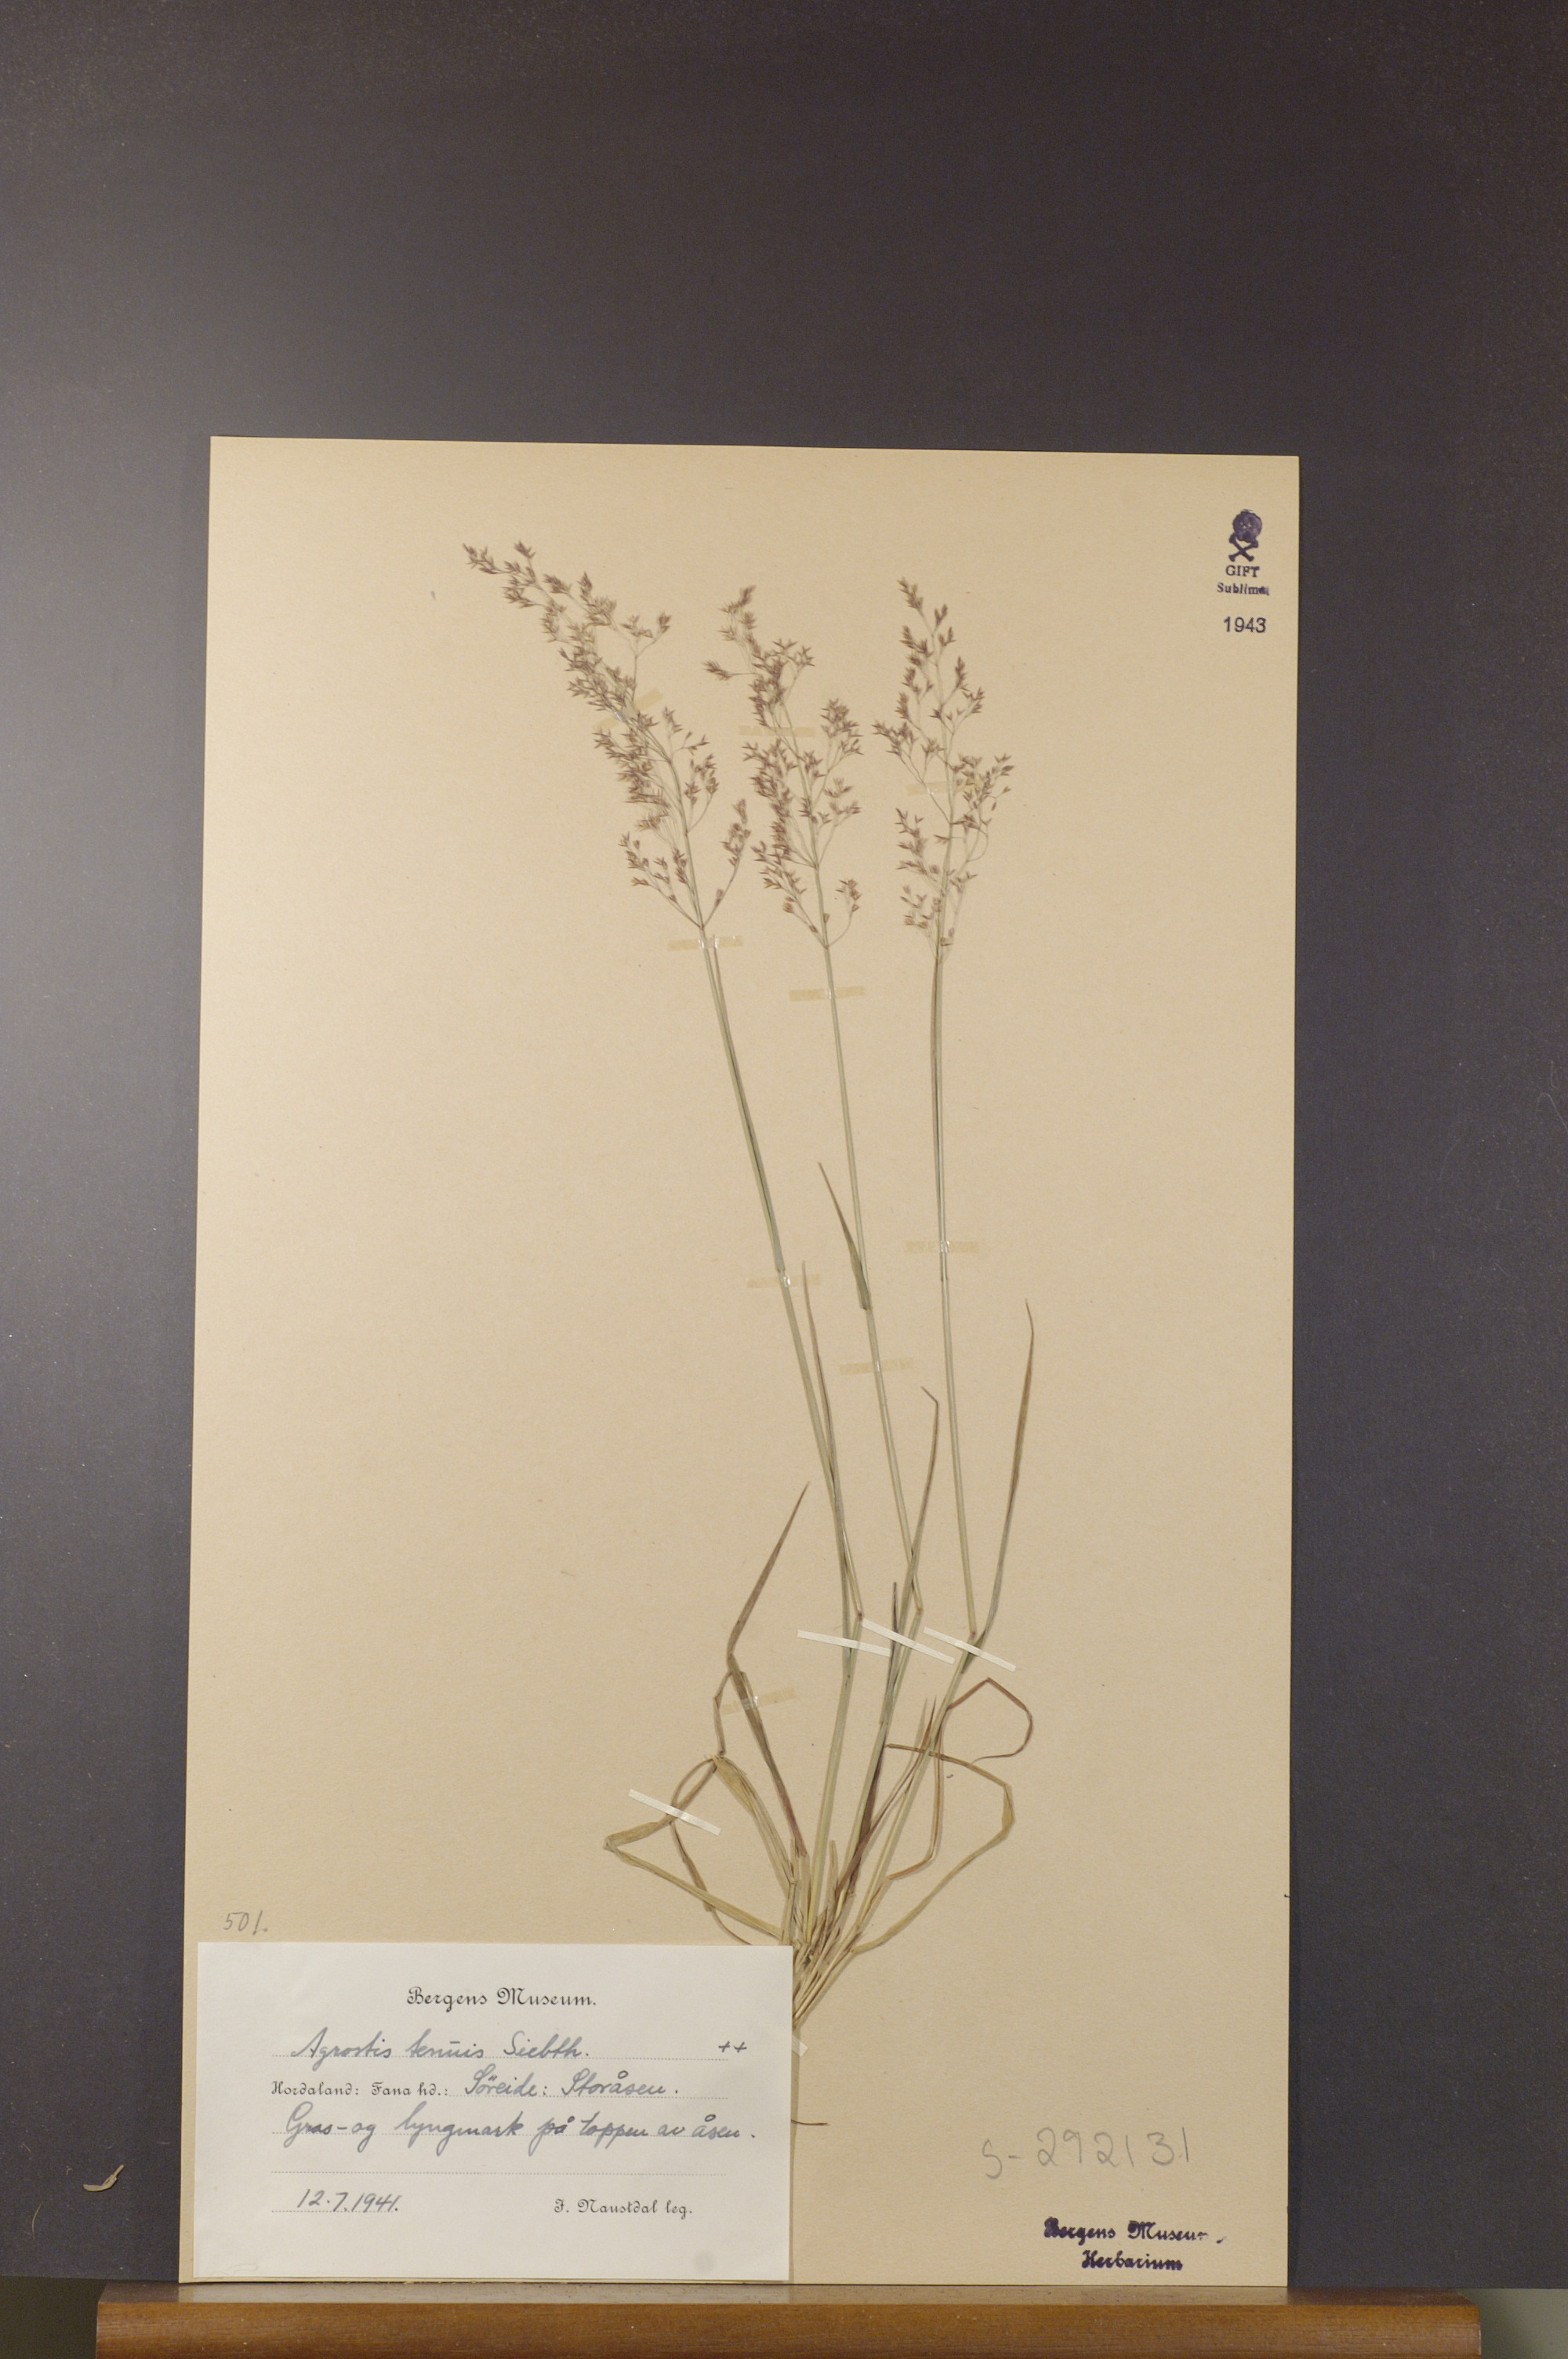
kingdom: Plantae
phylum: Tracheophyta
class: Liliopsida
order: Poales
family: Poaceae
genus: Agrostis
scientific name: Agrostis capillaris
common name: Colonial bentgrass
